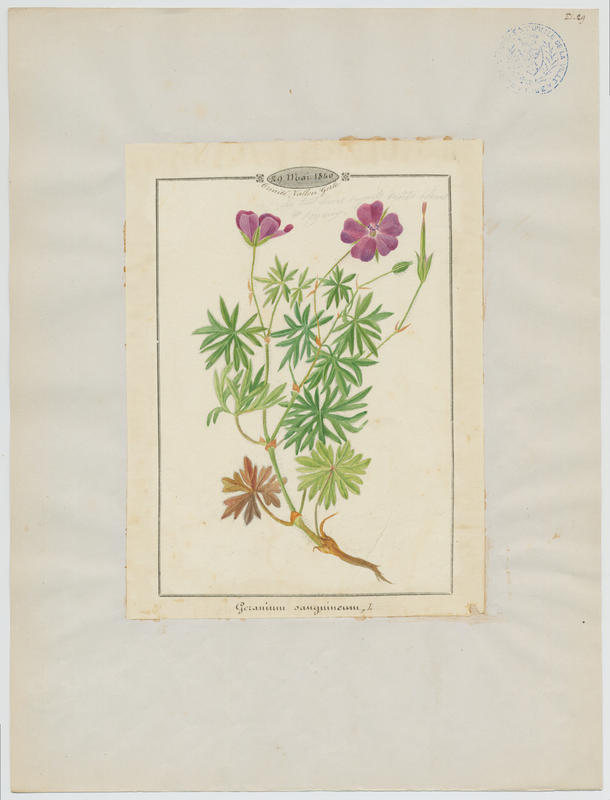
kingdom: Plantae
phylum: Tracheophyta
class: Magnoliopsida
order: Geraniales
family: Geraniaceae
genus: Geranium
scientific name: Geranium sanguineum
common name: Bloody crane's-bill
